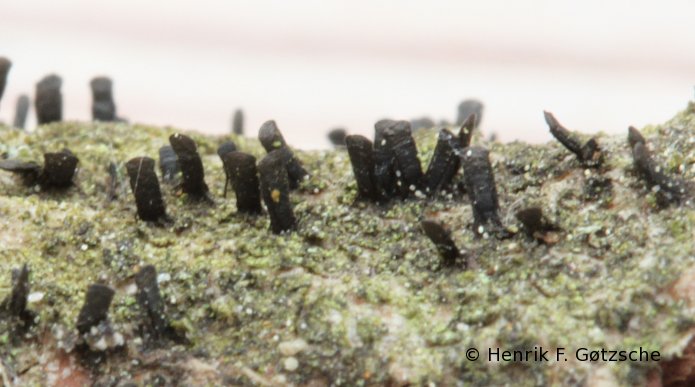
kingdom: Fungi
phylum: Ascomycota
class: Eurotiomycetes
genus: Glyphium
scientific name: Glyphium elatum
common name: kuløkse
